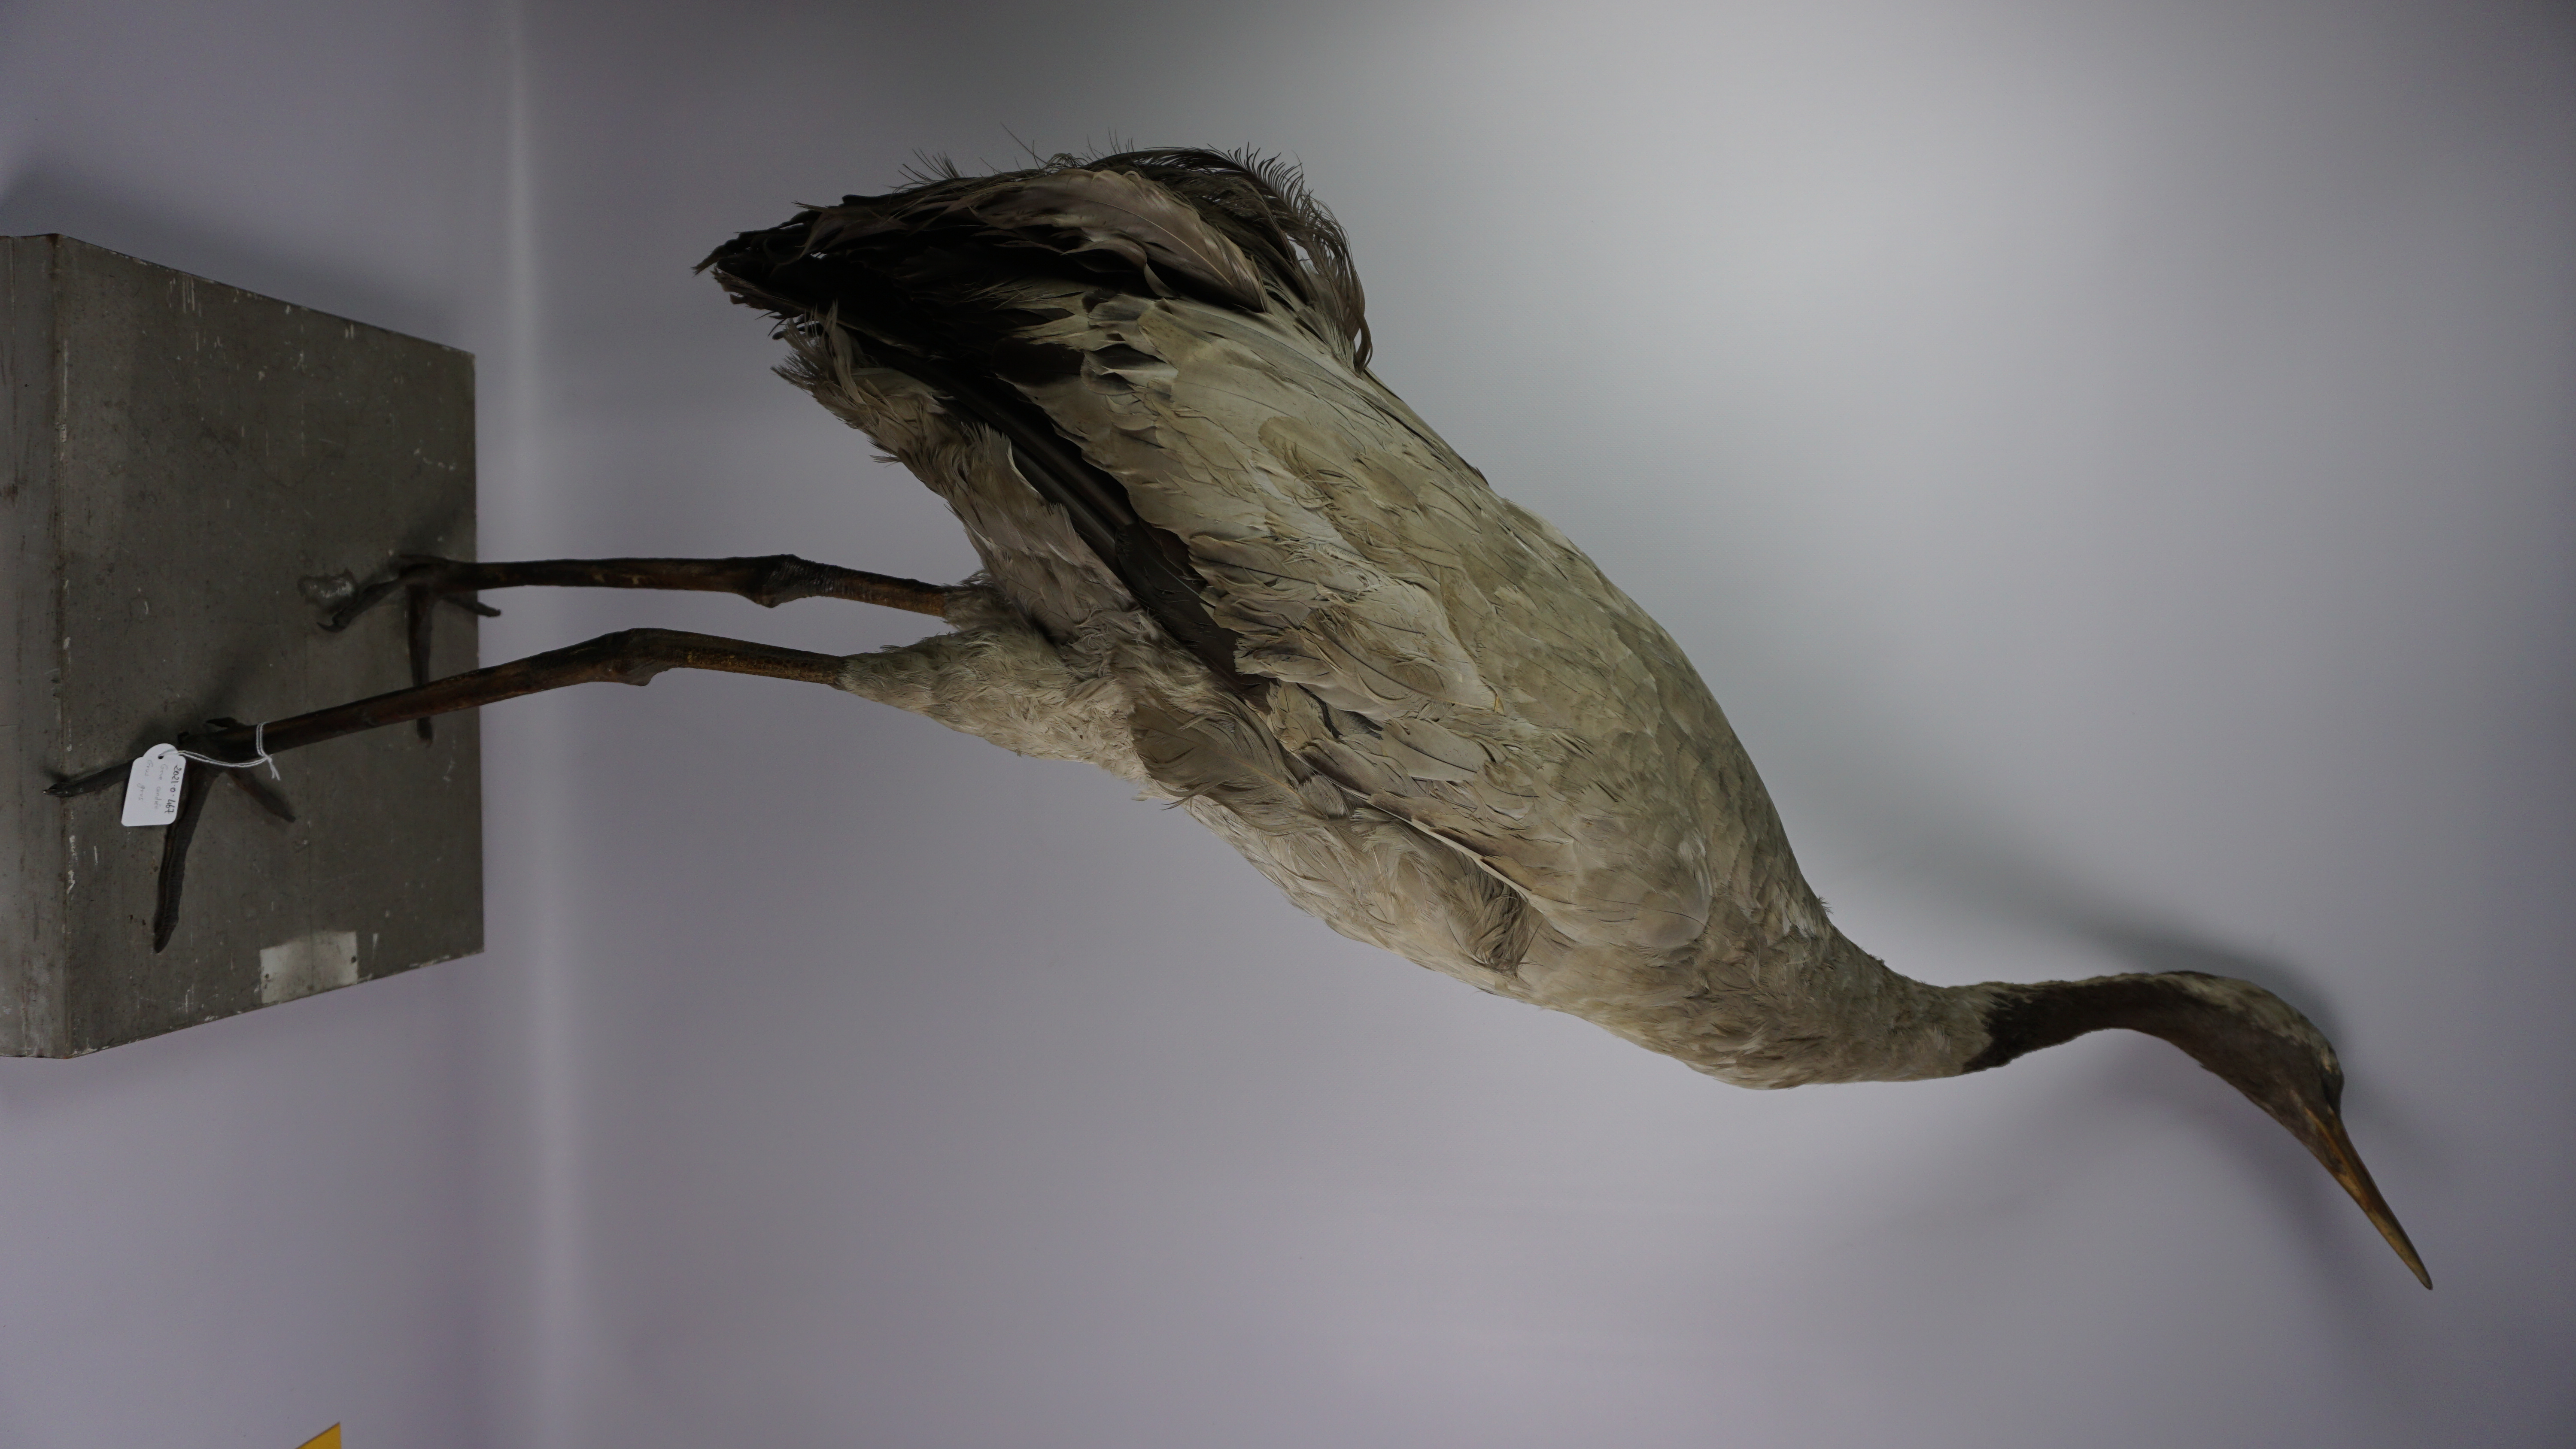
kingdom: Animalia
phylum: Chordata
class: Aves
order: Gruiformes
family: Gruidae
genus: Grus
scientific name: Grus grus
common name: Common crane
